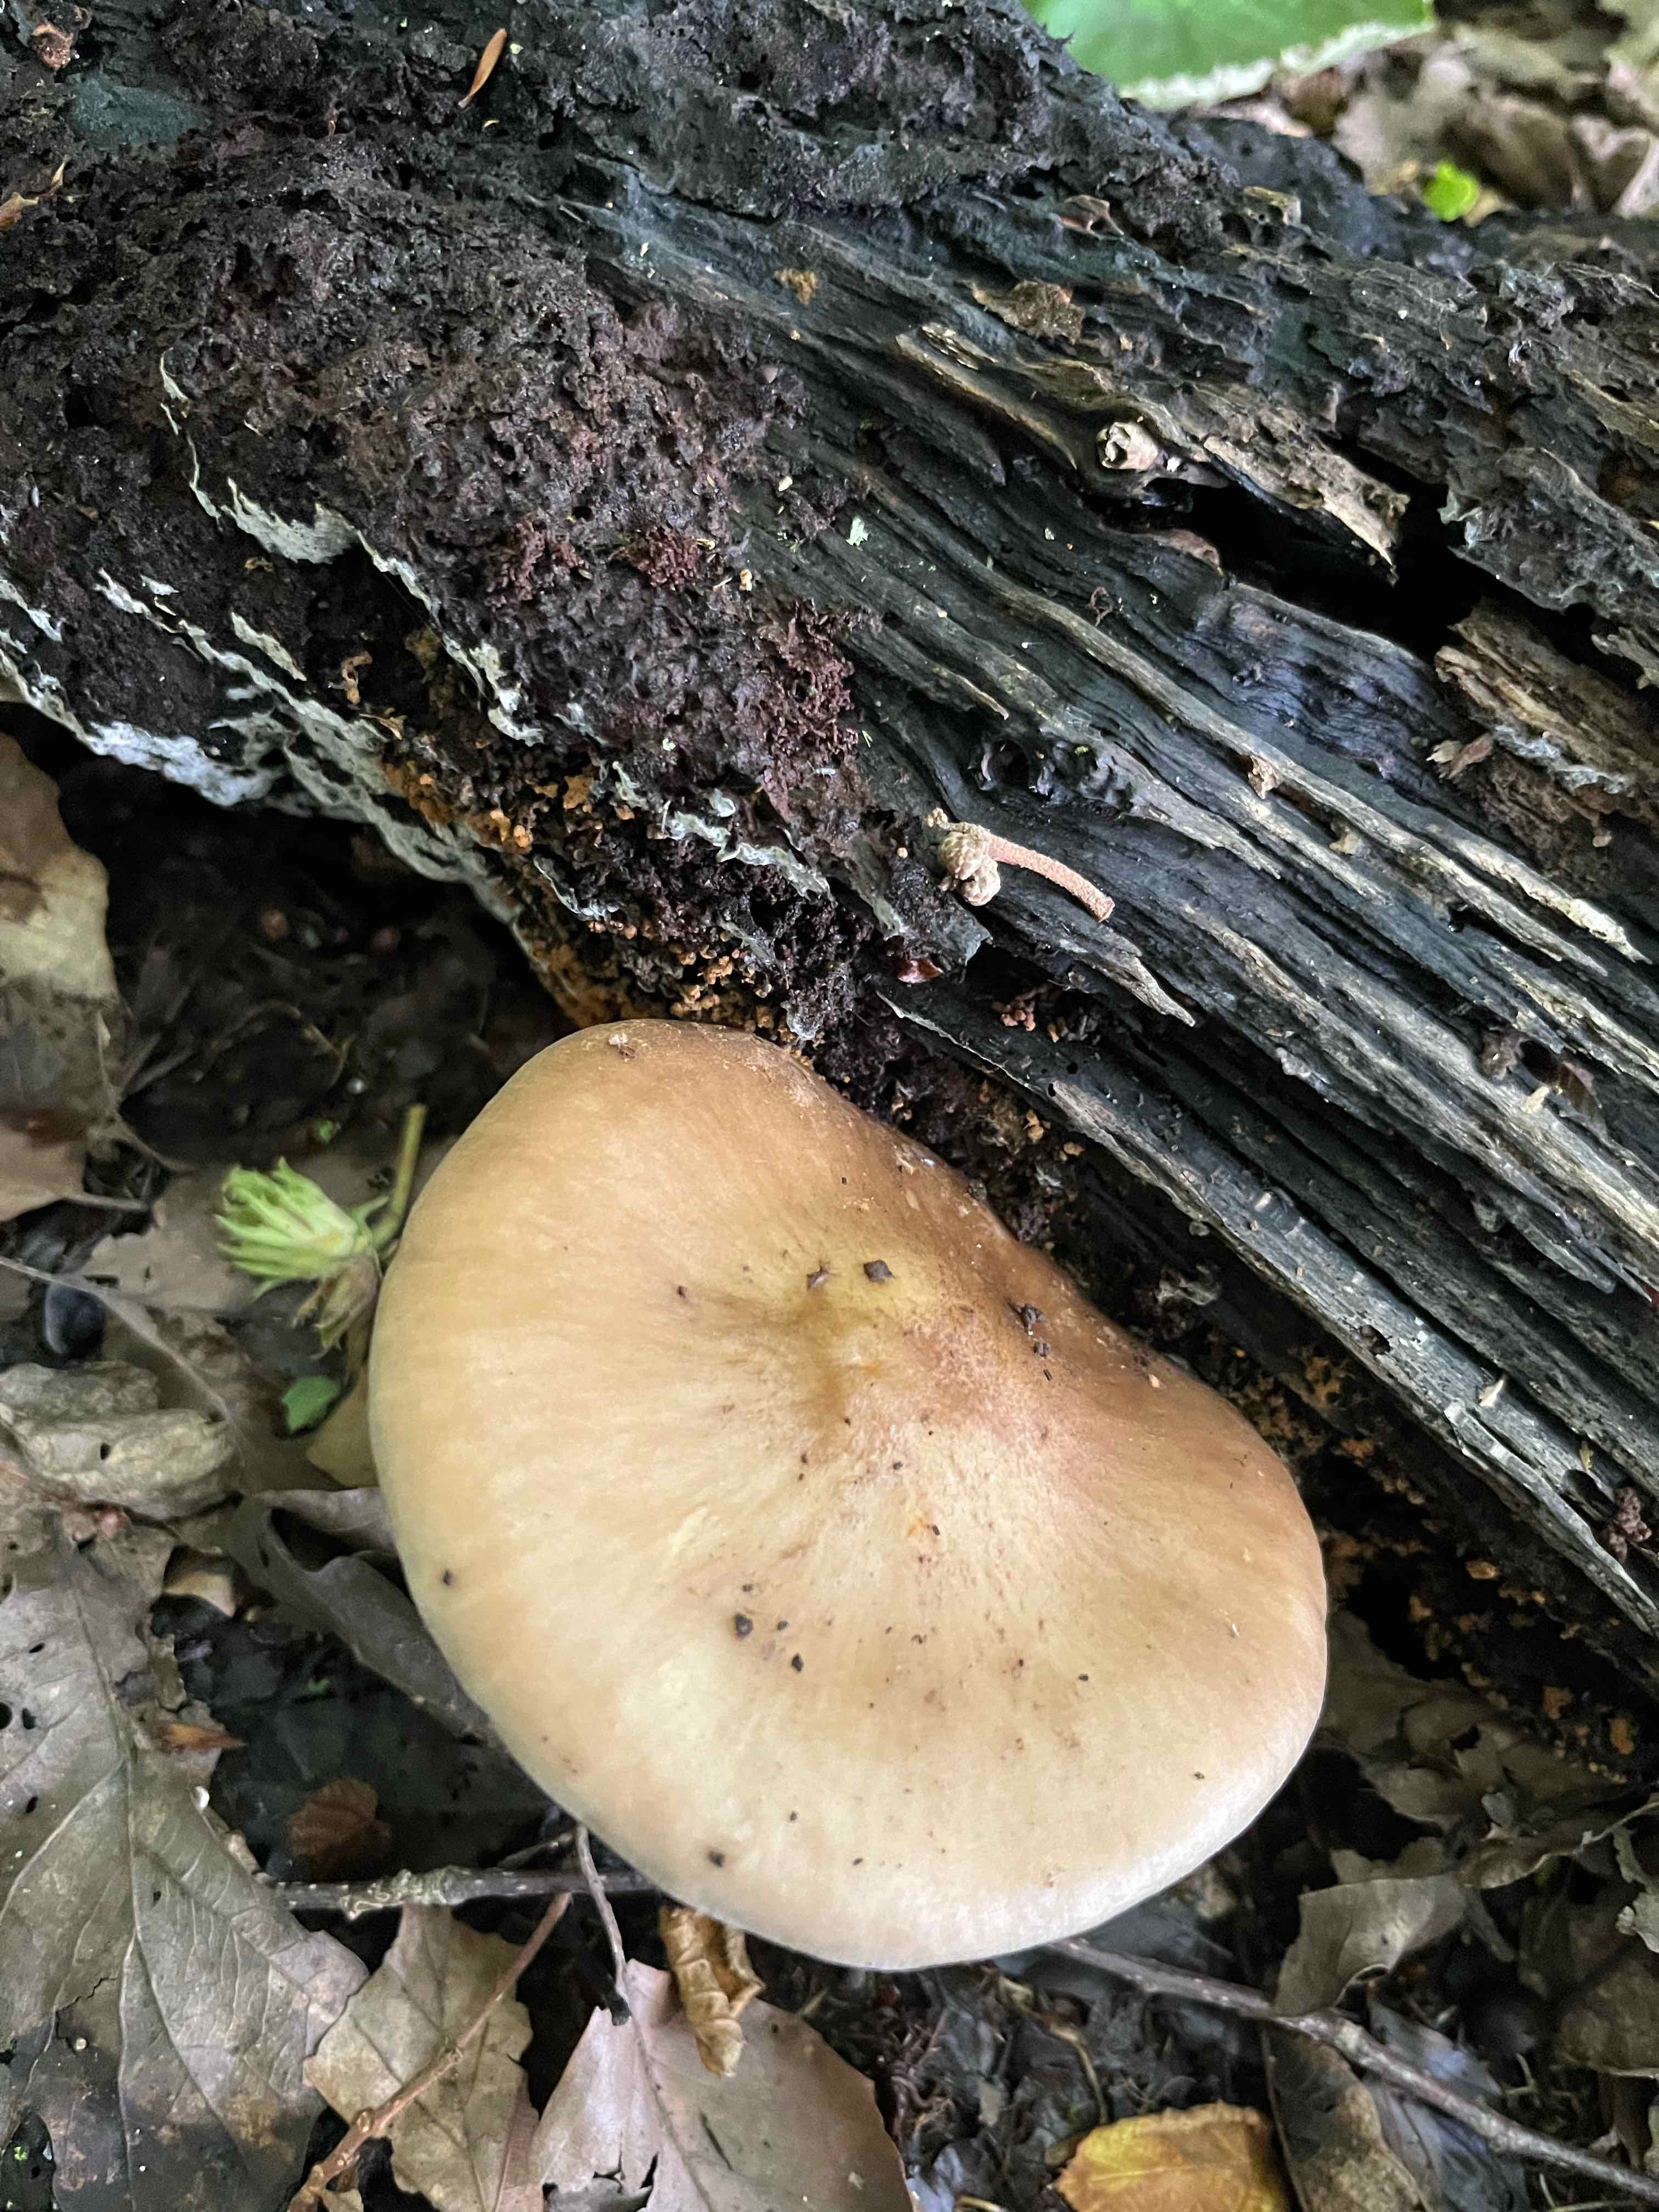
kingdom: Fungi
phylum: Basidiomycota
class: Agaricomycetes
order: Agaricales
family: Pluteaceae
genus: Pluteus
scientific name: Pluteus cervinus
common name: sodfarvet skærmhat
